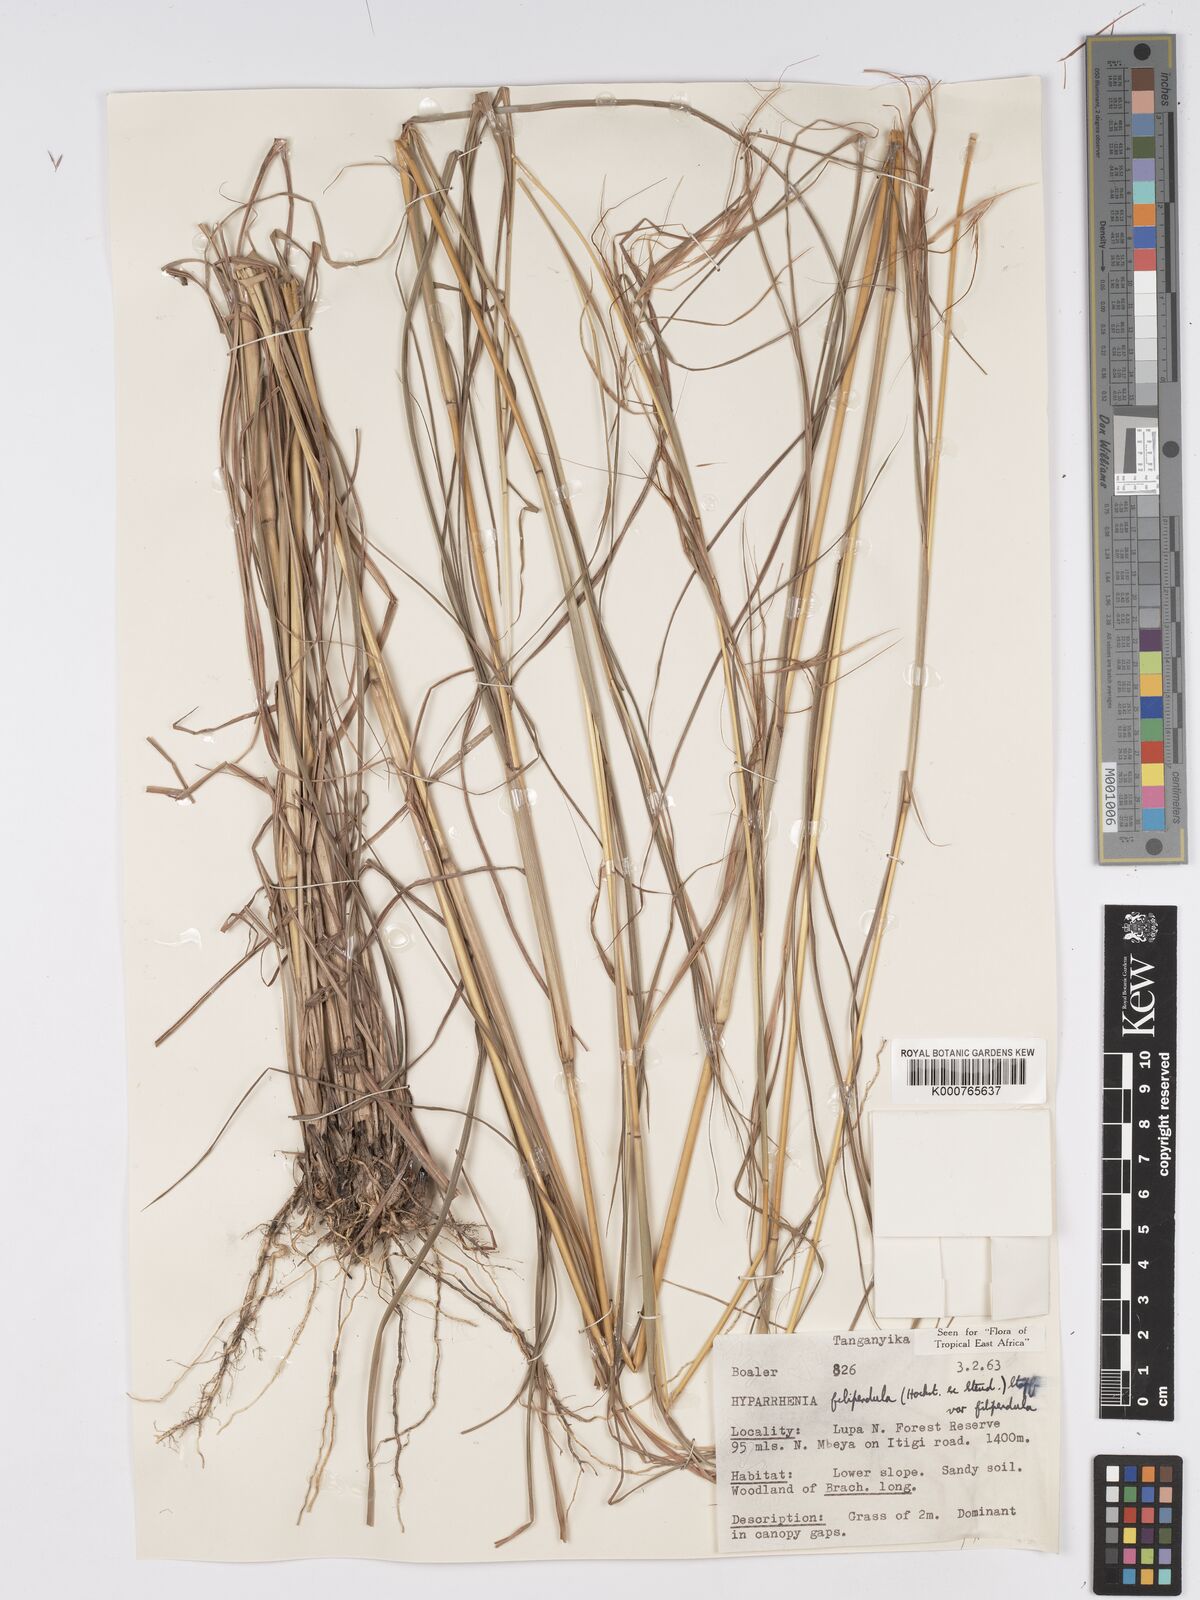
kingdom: Plantae
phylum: Tracheophyta
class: Liliopsida
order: Poales
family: Poaceae
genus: Hyparrhenia
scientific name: Hyparrhenia filipendula
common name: Tambookie grass
